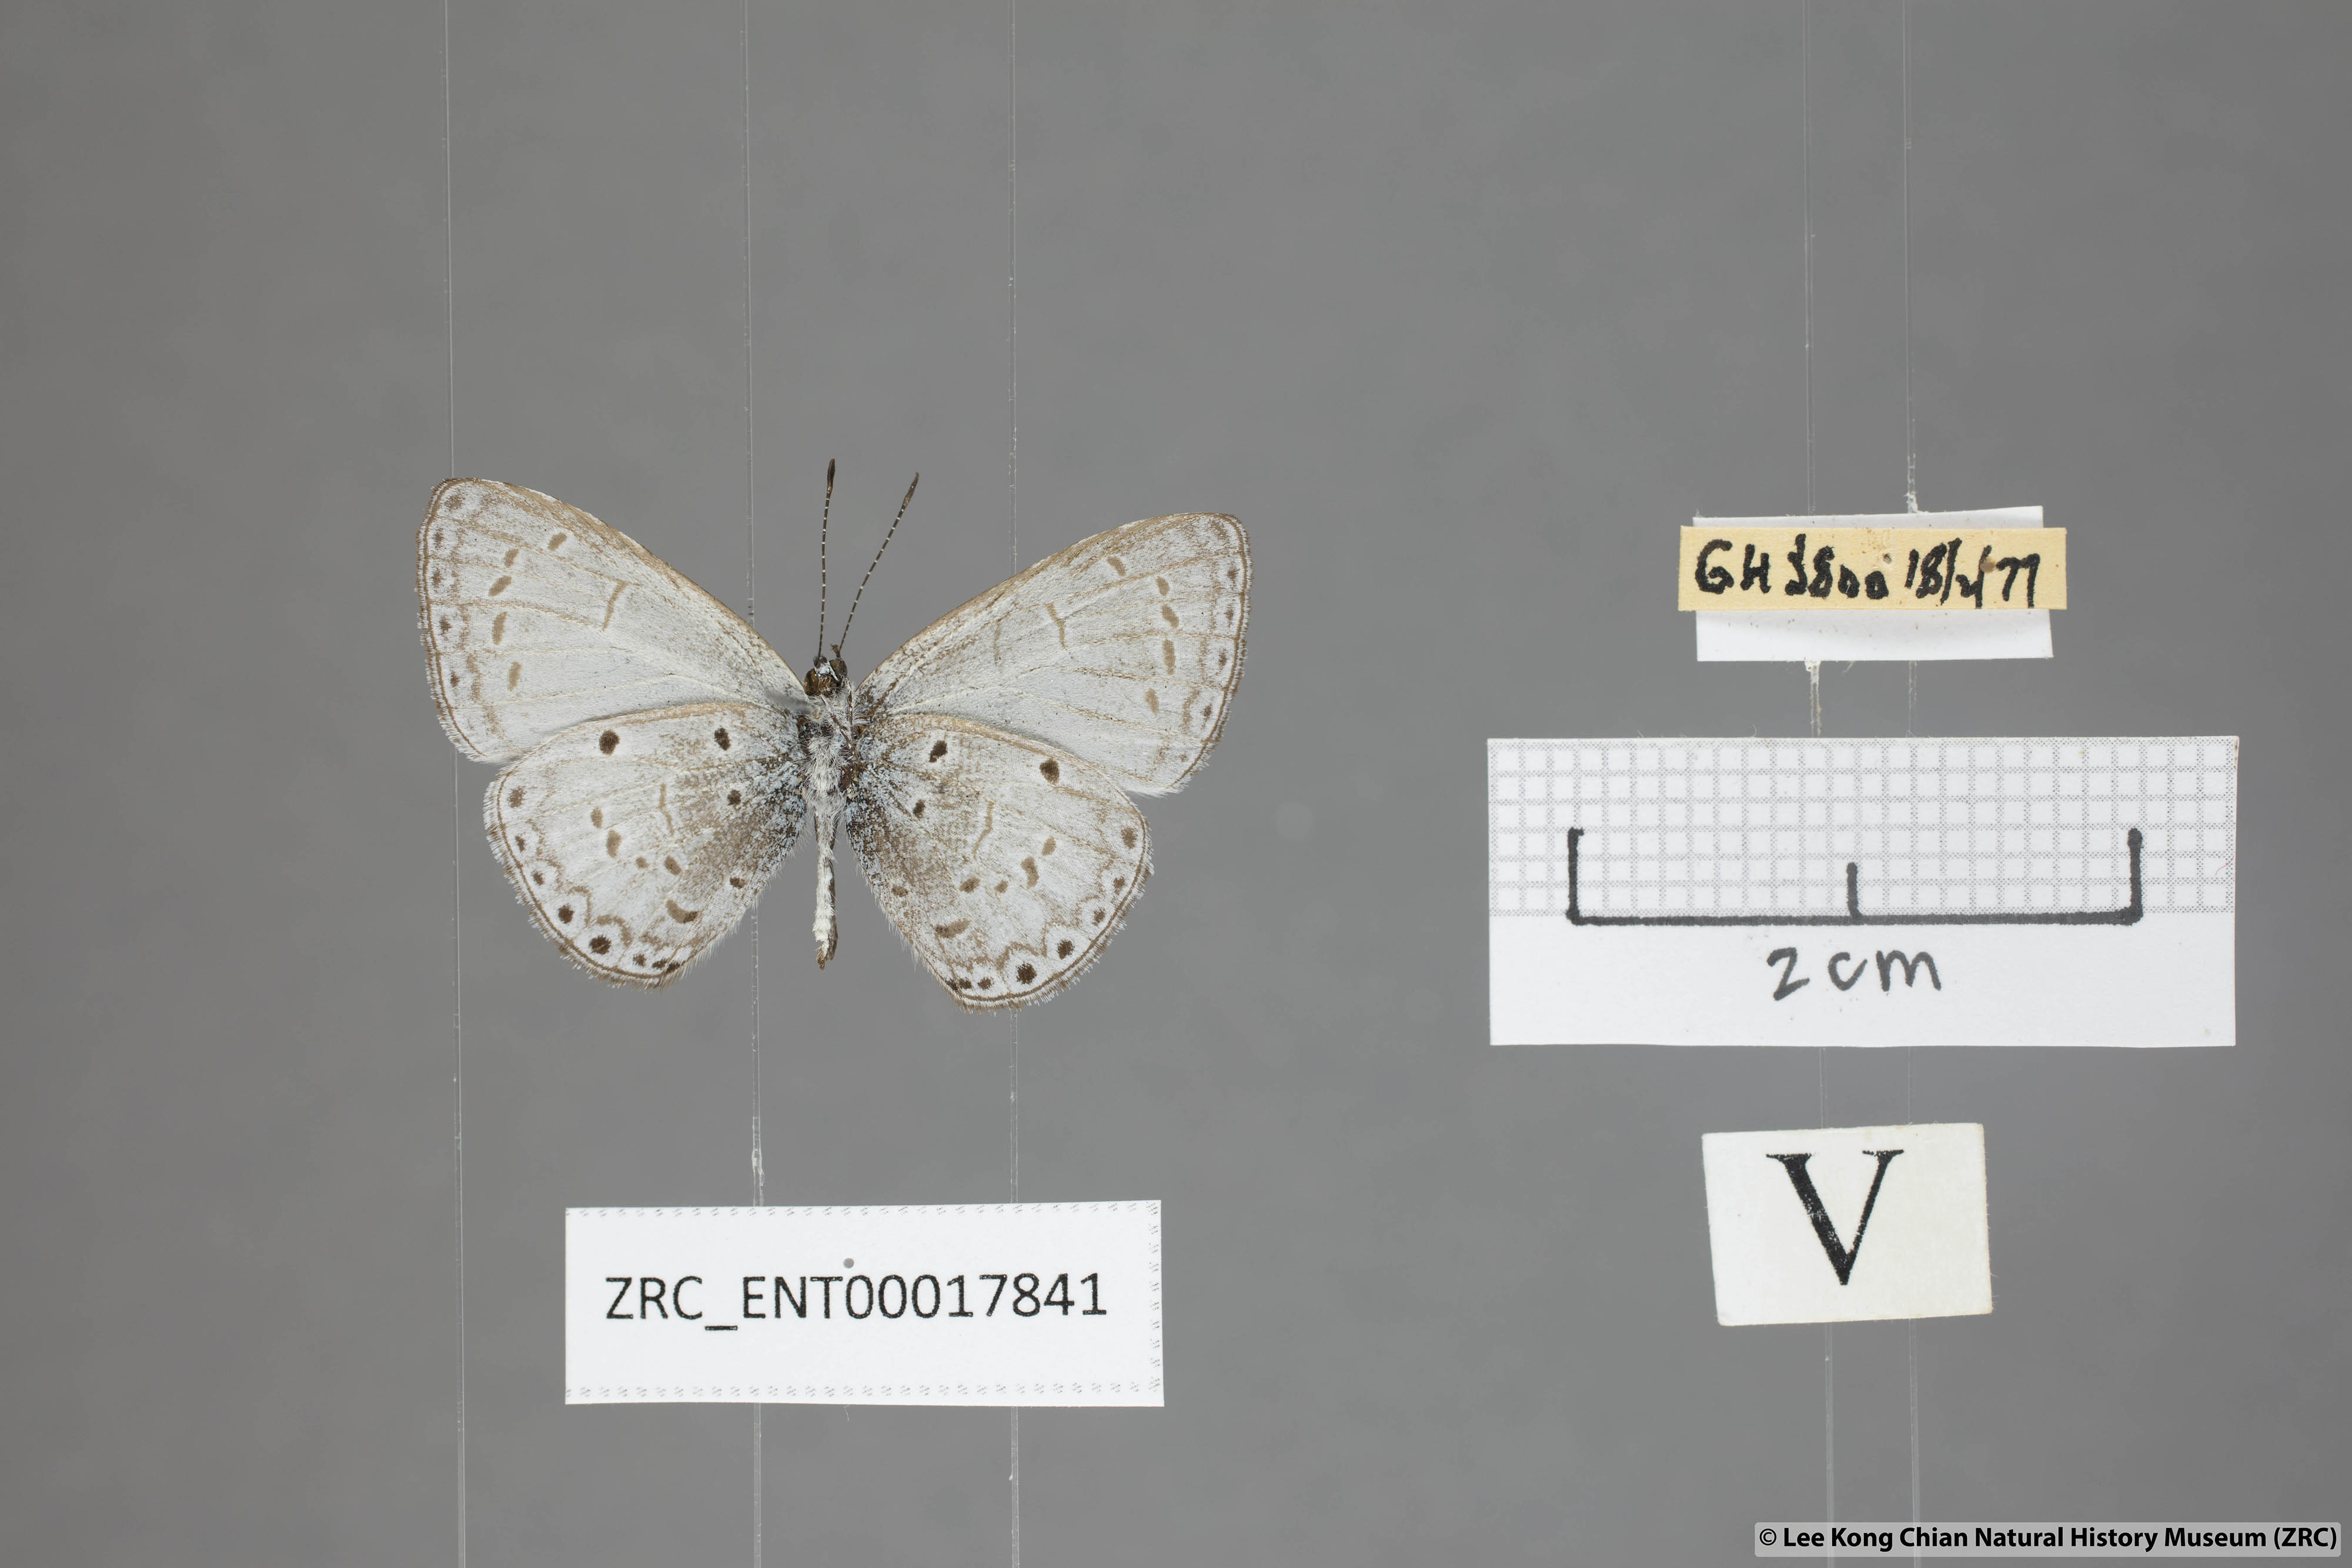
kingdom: Animalia
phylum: Arthropoda
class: Insecta
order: Lepidoptera
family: Lycaenidae
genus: Udara
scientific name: Udara
